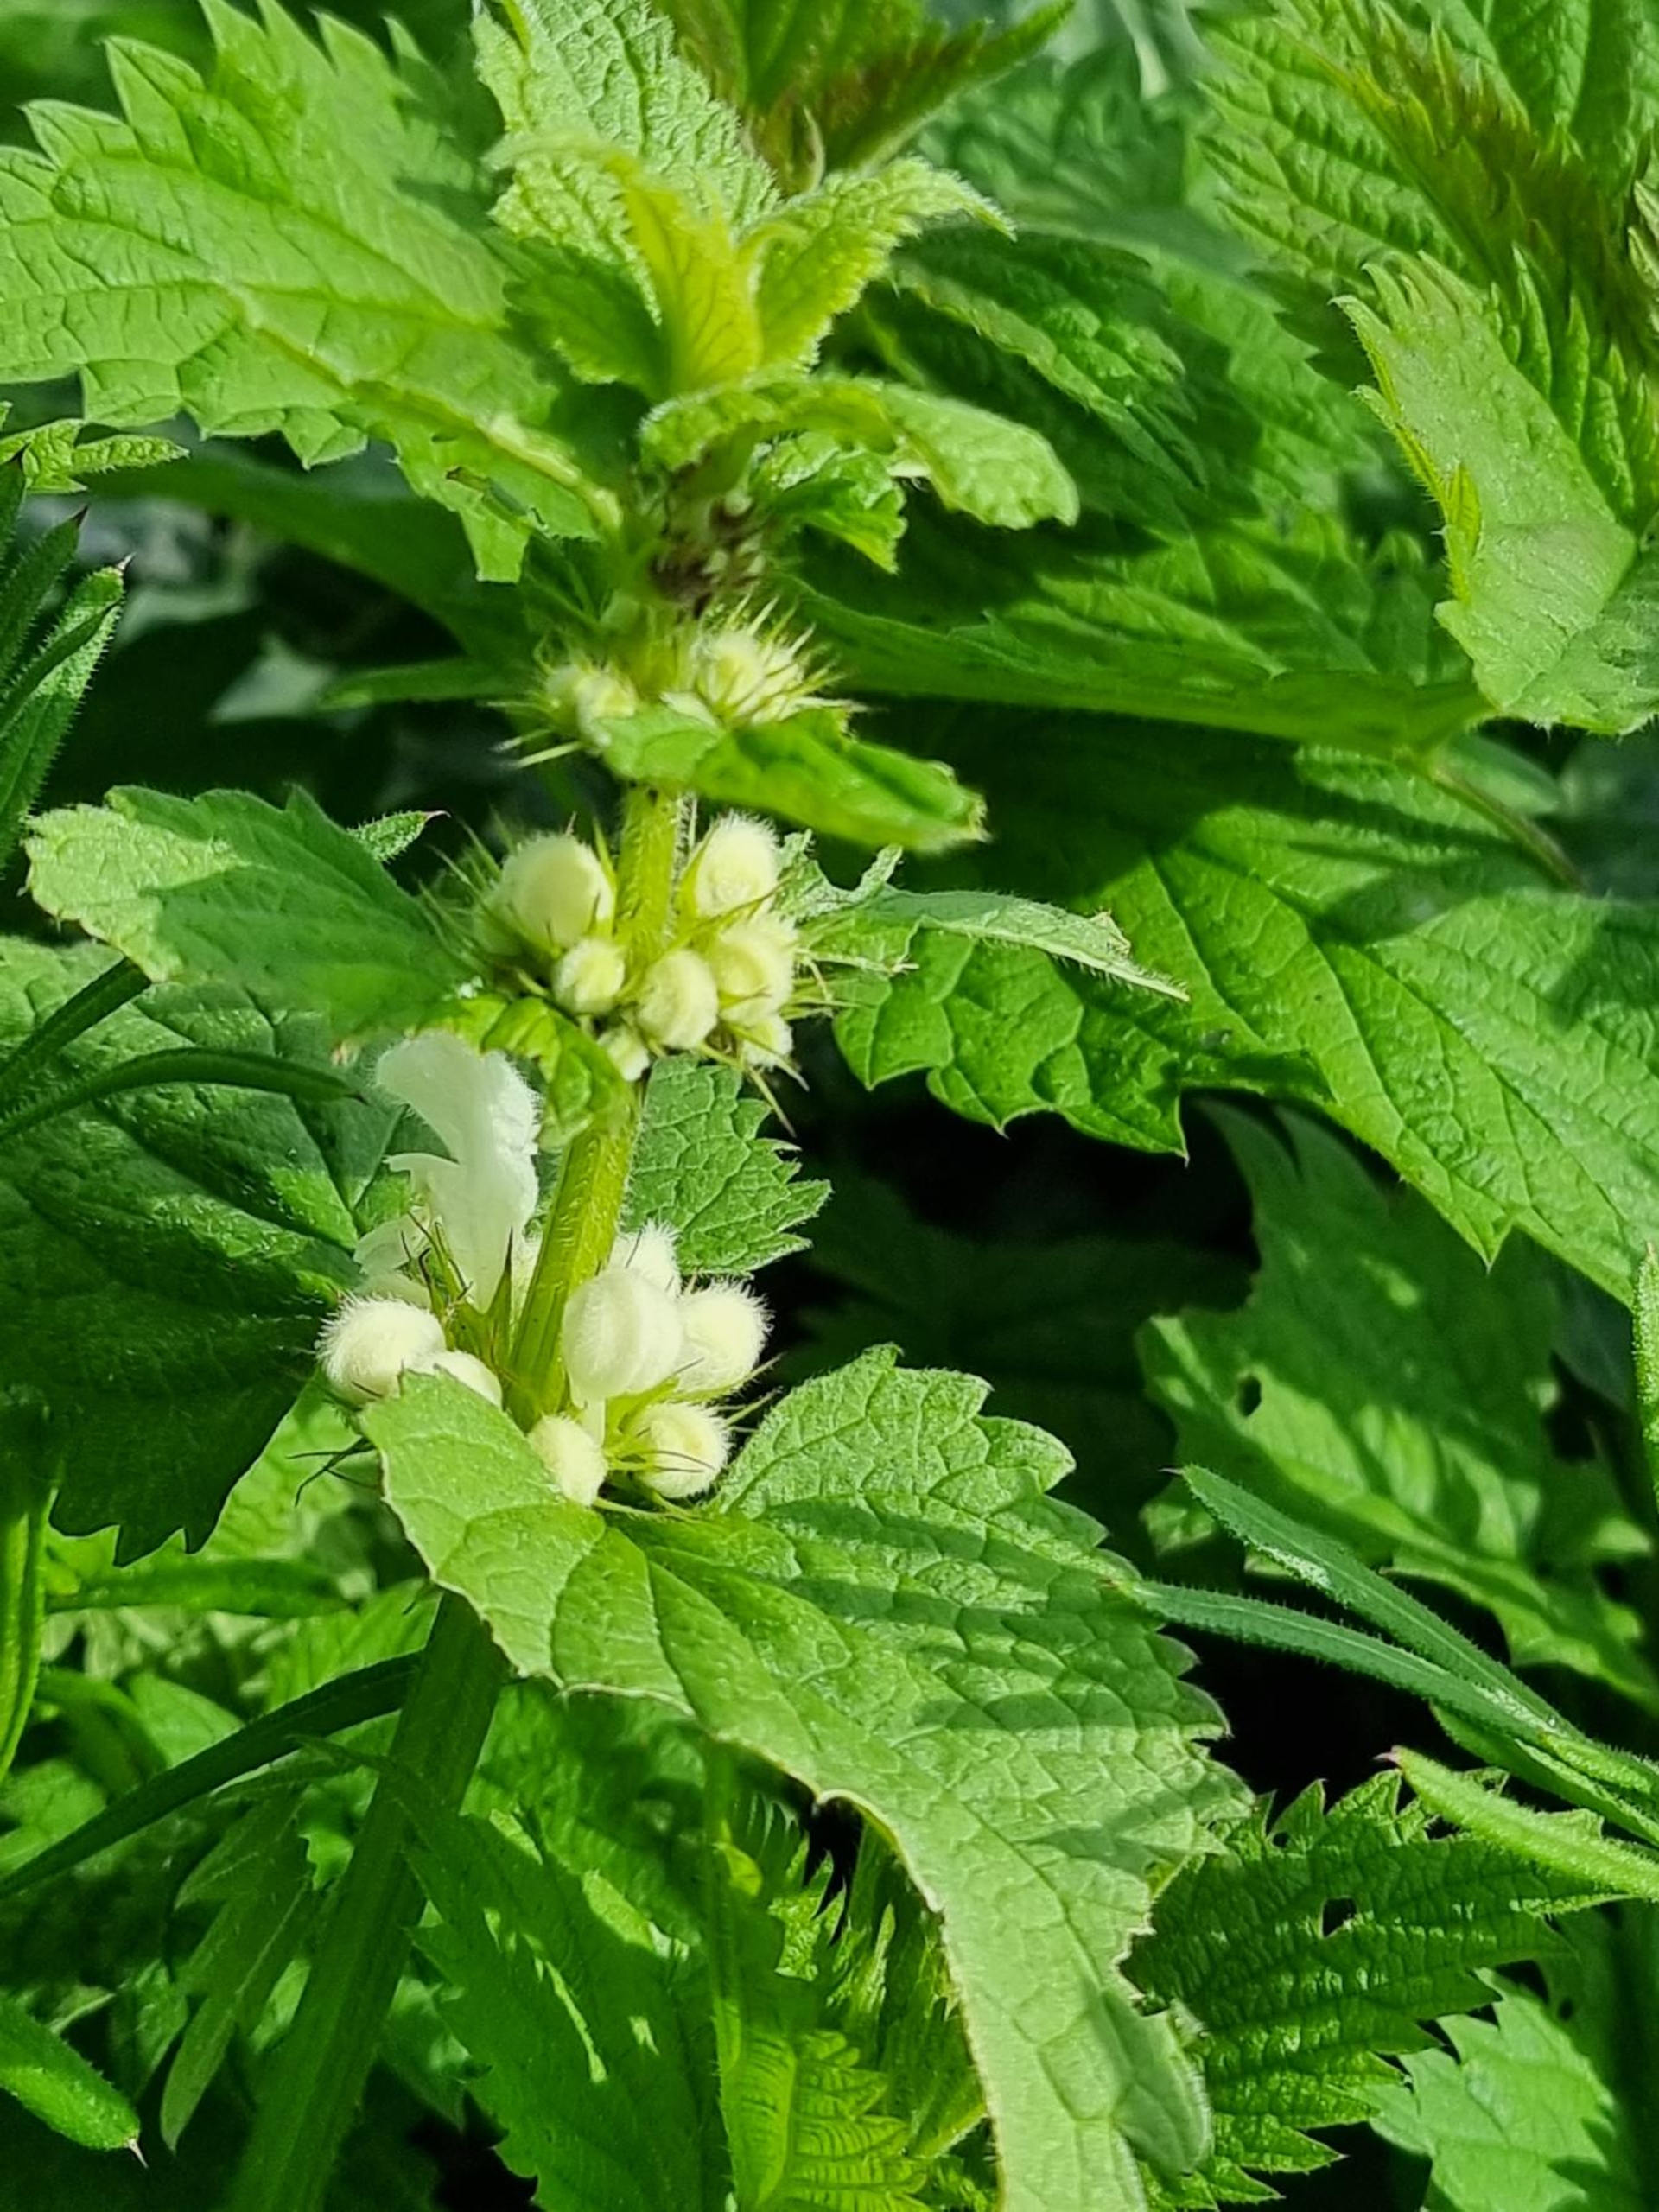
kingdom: Plantae
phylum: Tracheophyta
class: Magnoliopsida
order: Lamiales
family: Lamiaceae
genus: Lamium
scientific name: Lamium album
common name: Døvnælde
